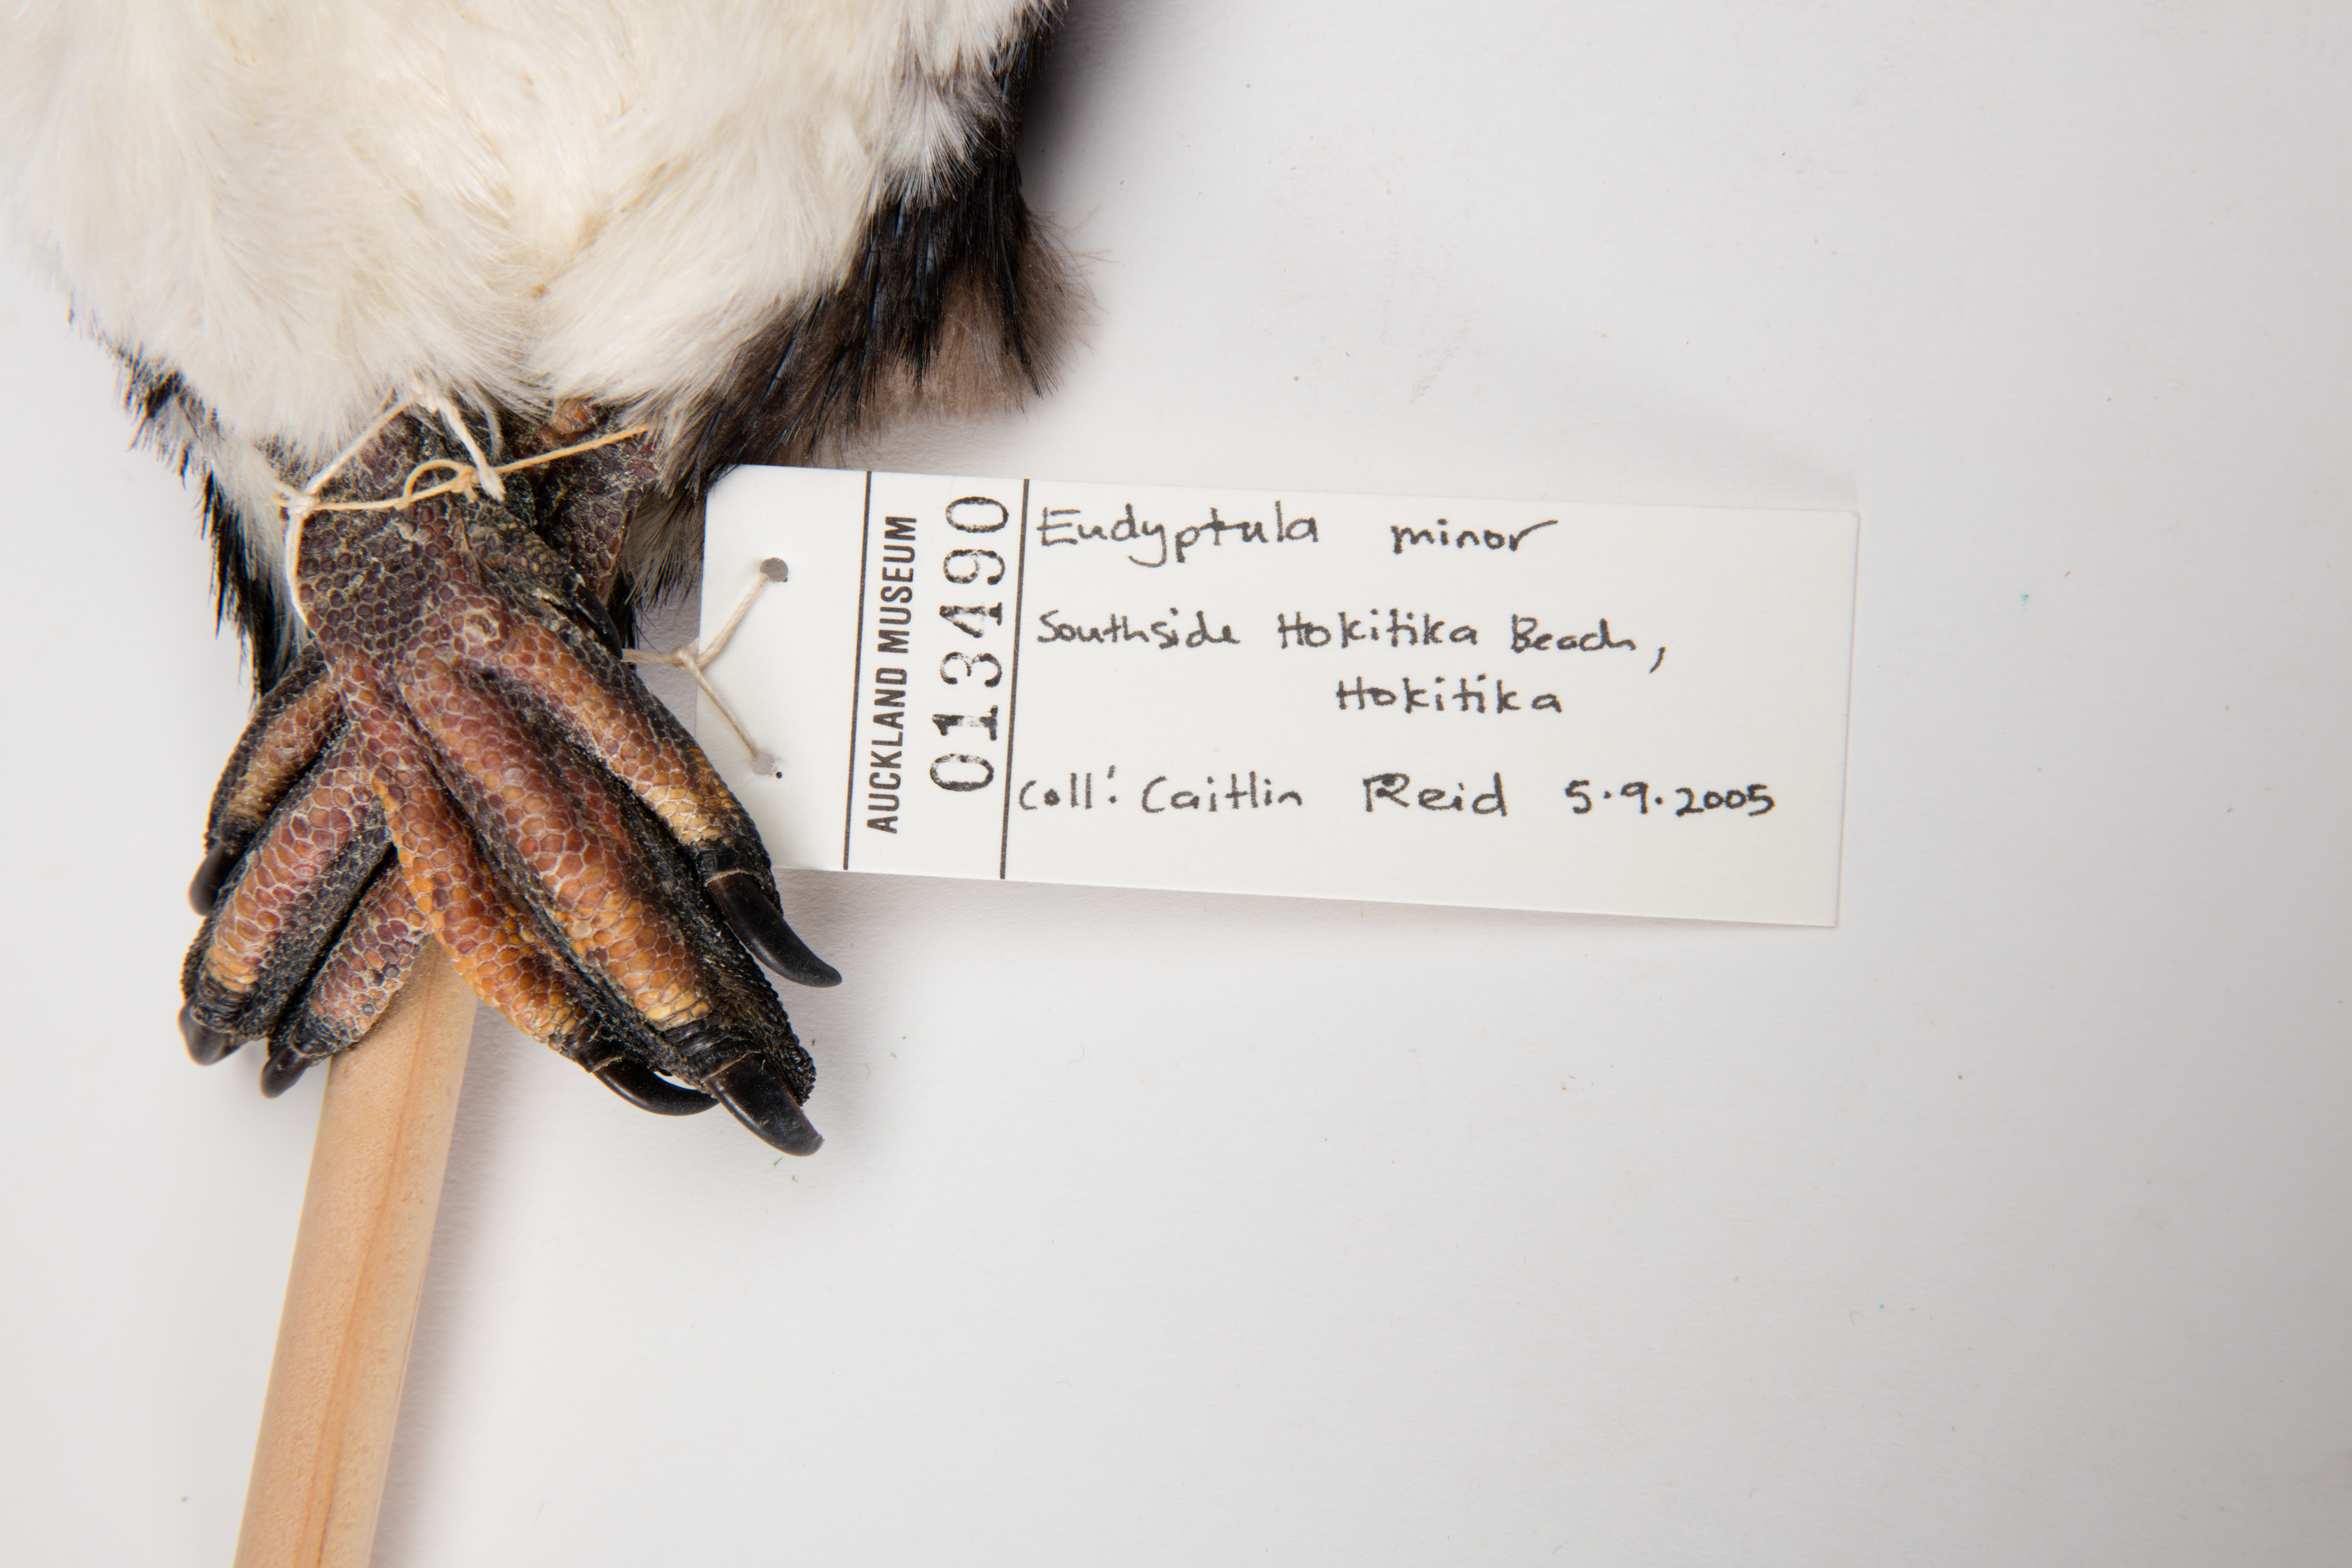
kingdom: Animalia
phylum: Chordata
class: Aves
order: Sphenisciformes
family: Spheniscidae
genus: Eudyptula
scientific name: Eudyptula minor
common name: Little penguin
